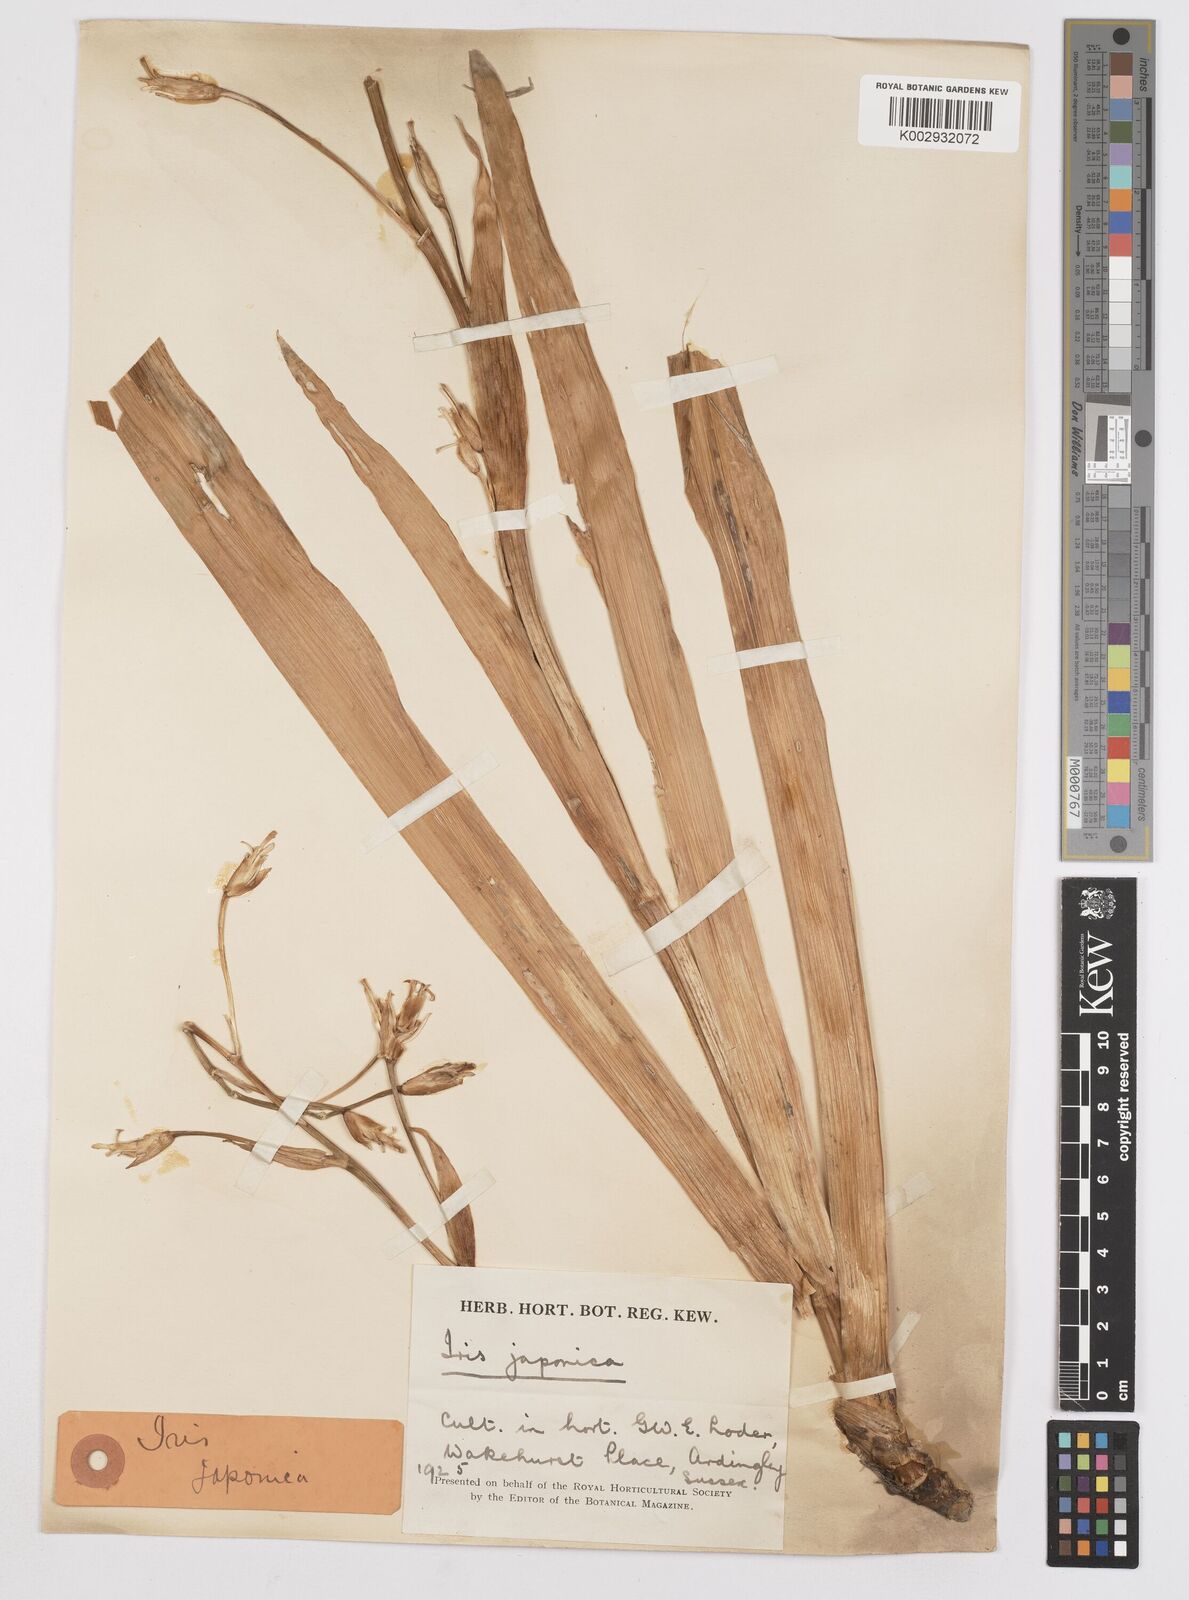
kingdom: Plantae
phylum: Tracheophyta
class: Liliopsida
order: Asparagales
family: Iridaceae
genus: Iris
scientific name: Iris japonica
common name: Butterfly-flower
